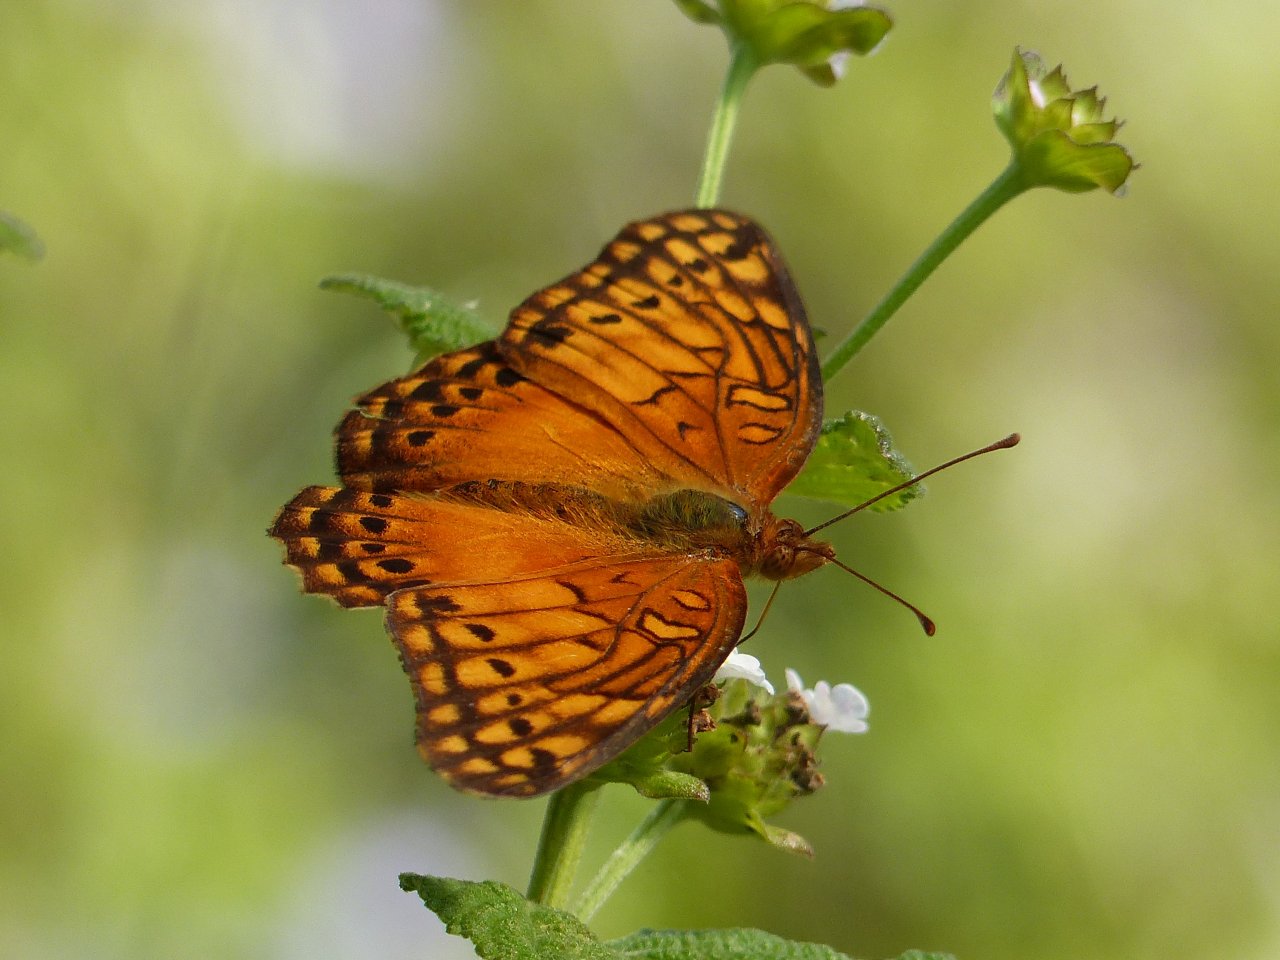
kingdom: Animalia
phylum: Arthropoda
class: Insecta
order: Lepidoptera
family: Nymphalidae
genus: Euptoieta
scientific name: Euptoieta hegesia
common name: Mexican Fritillary
